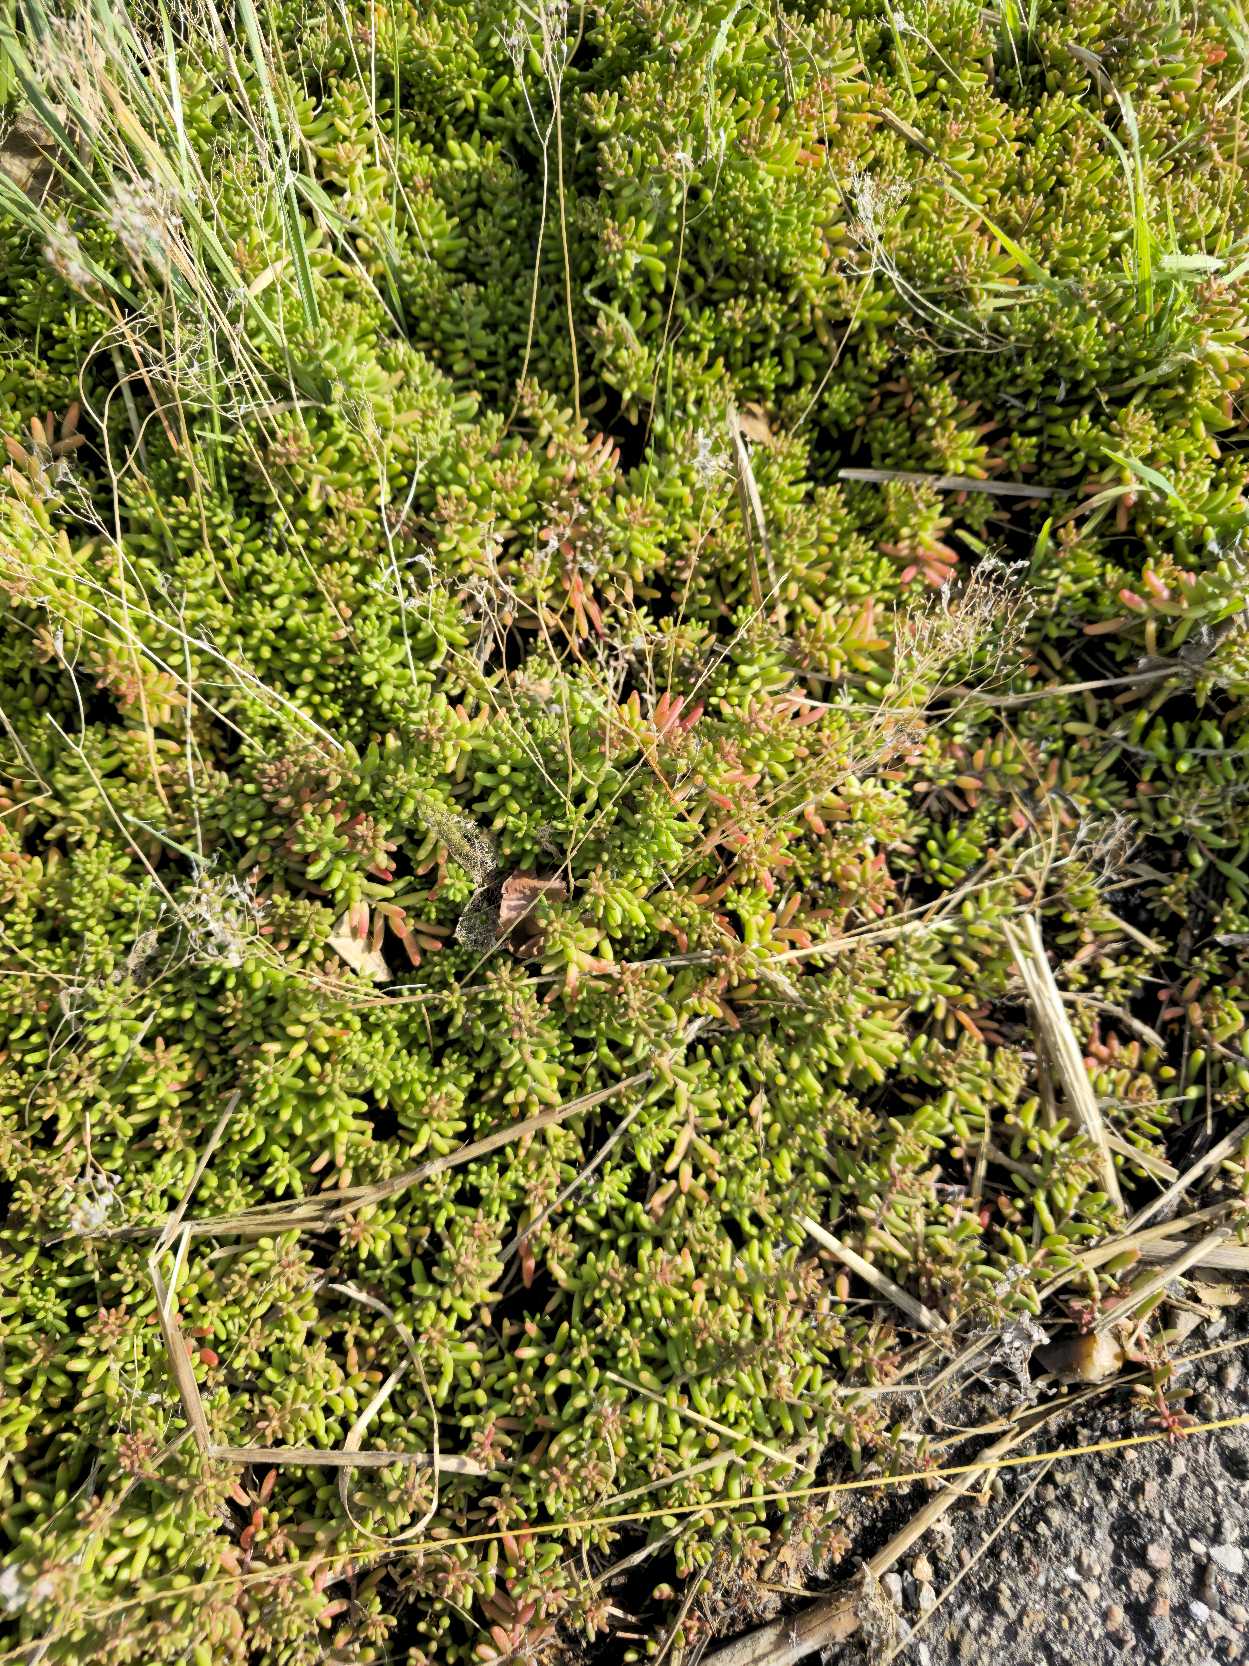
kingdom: Plantae
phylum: Tracheophyta
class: Magnoliopsida
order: Saxifragales
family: Crassulaceae
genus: Sedum
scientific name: Sedum album
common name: Hvid stenurt
